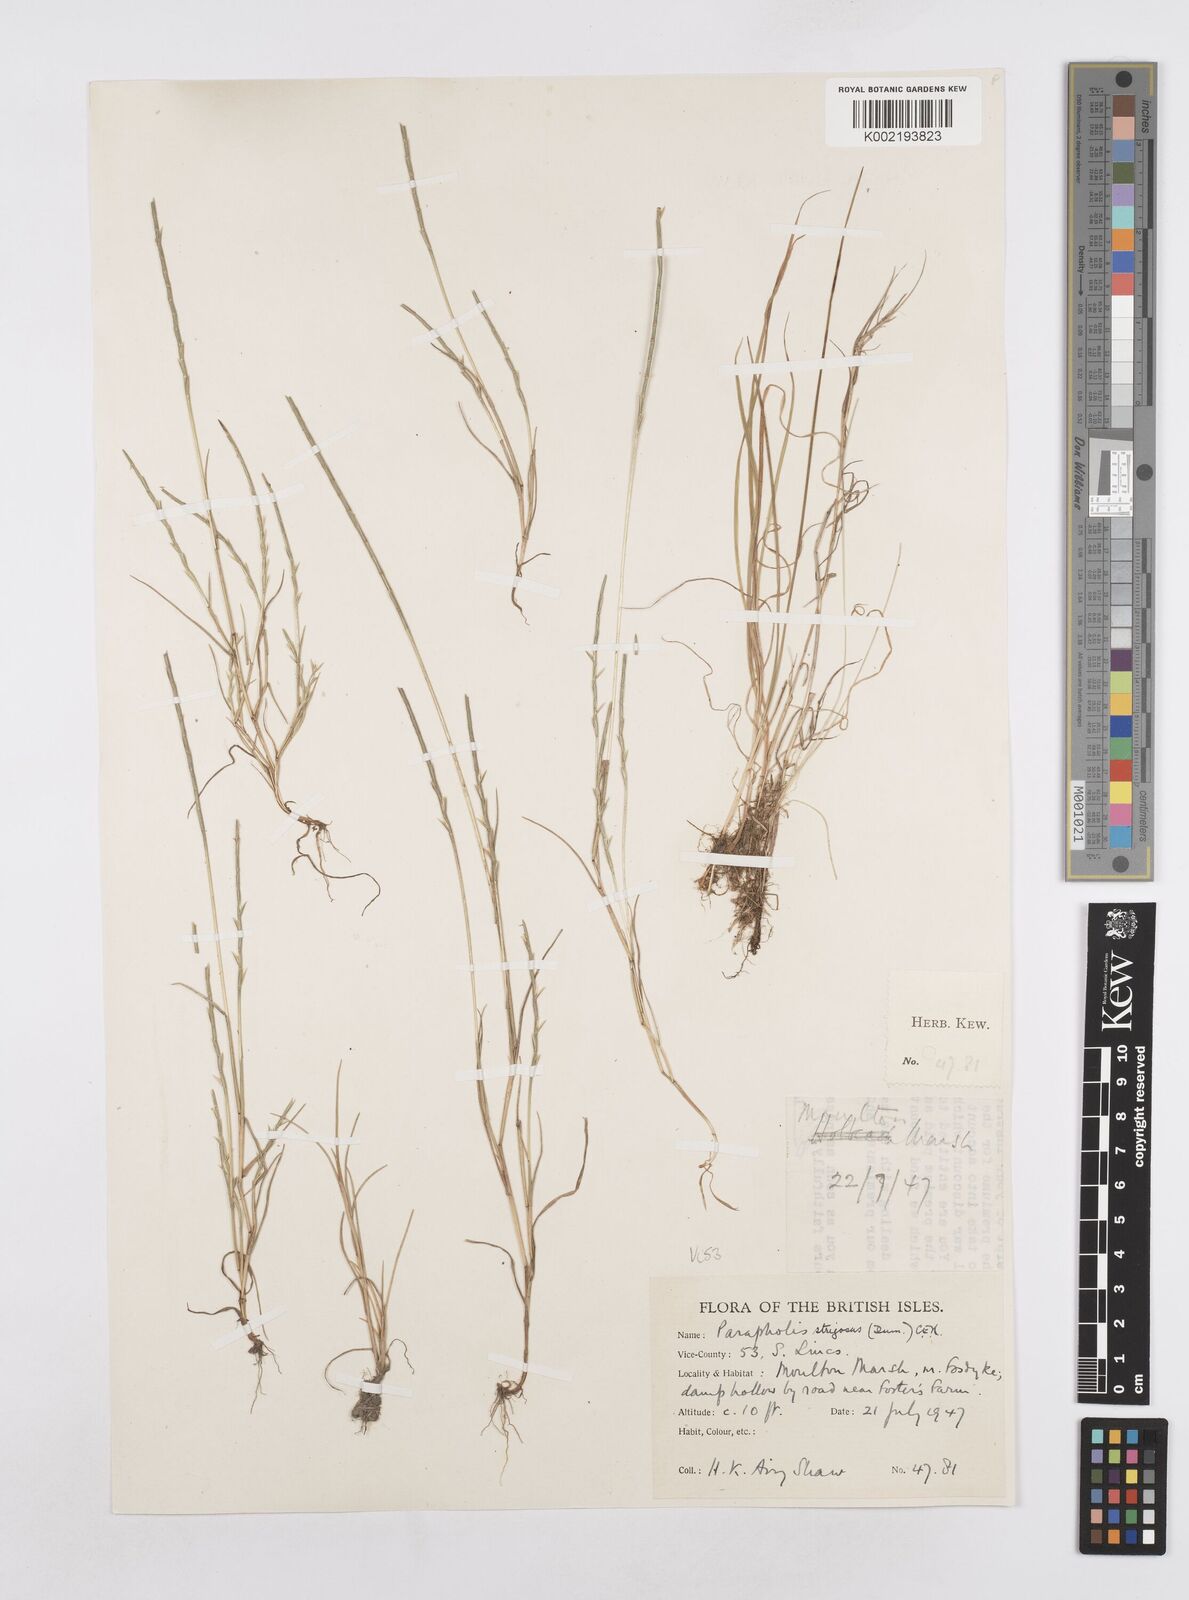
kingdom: Plantae
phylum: Tracheophyta
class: Liliopsida
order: Poales
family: Poaceae
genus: Parapholis
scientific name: Parapholis strigosa
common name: Hard-grass
